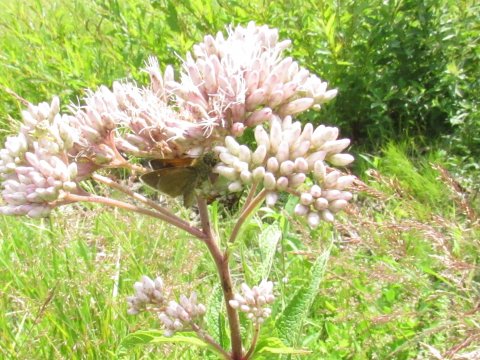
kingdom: Animalia
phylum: Arthropoda
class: Insecta
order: Lepidoptera
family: Hesperiidae
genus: Polites
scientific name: Polites themistocles
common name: Tawny-edged Skipper
